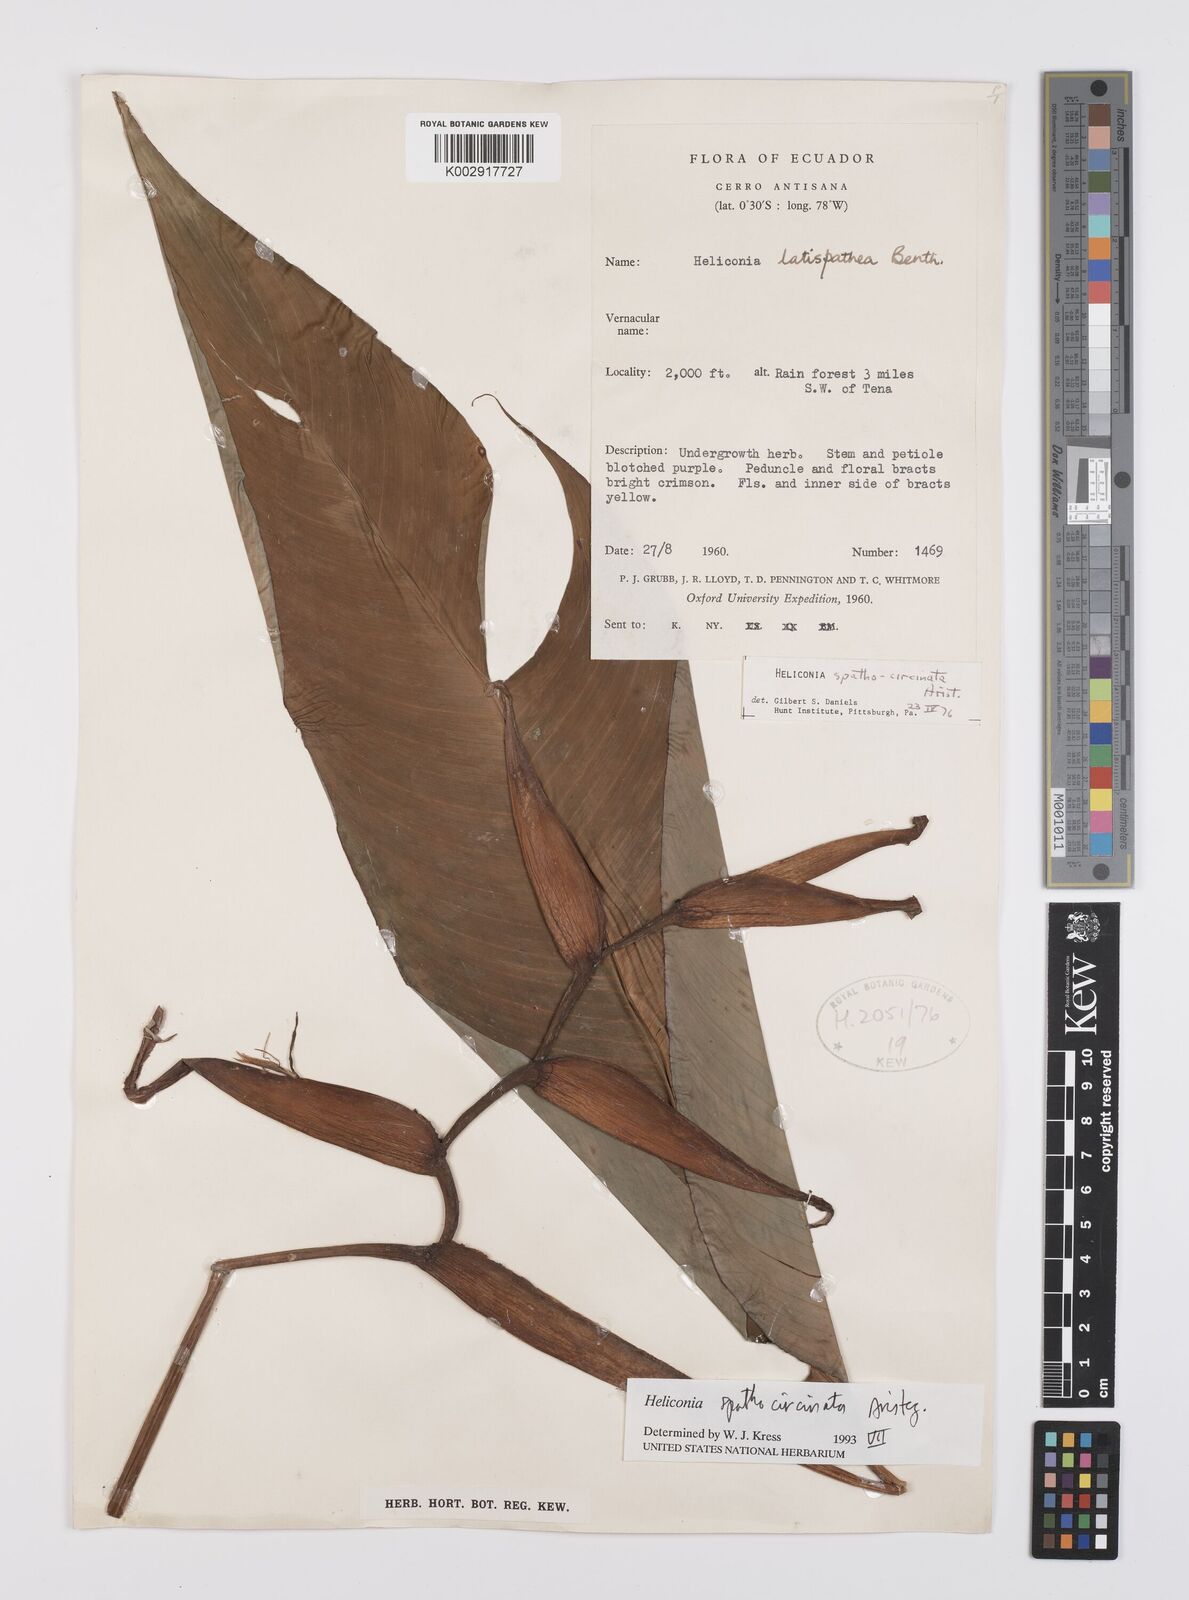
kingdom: Plantae
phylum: Tracheophyta
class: Liliopsida
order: Zingiberales
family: Heliconiaceae
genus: Heliconia
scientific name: Heliconia spathocircinata
